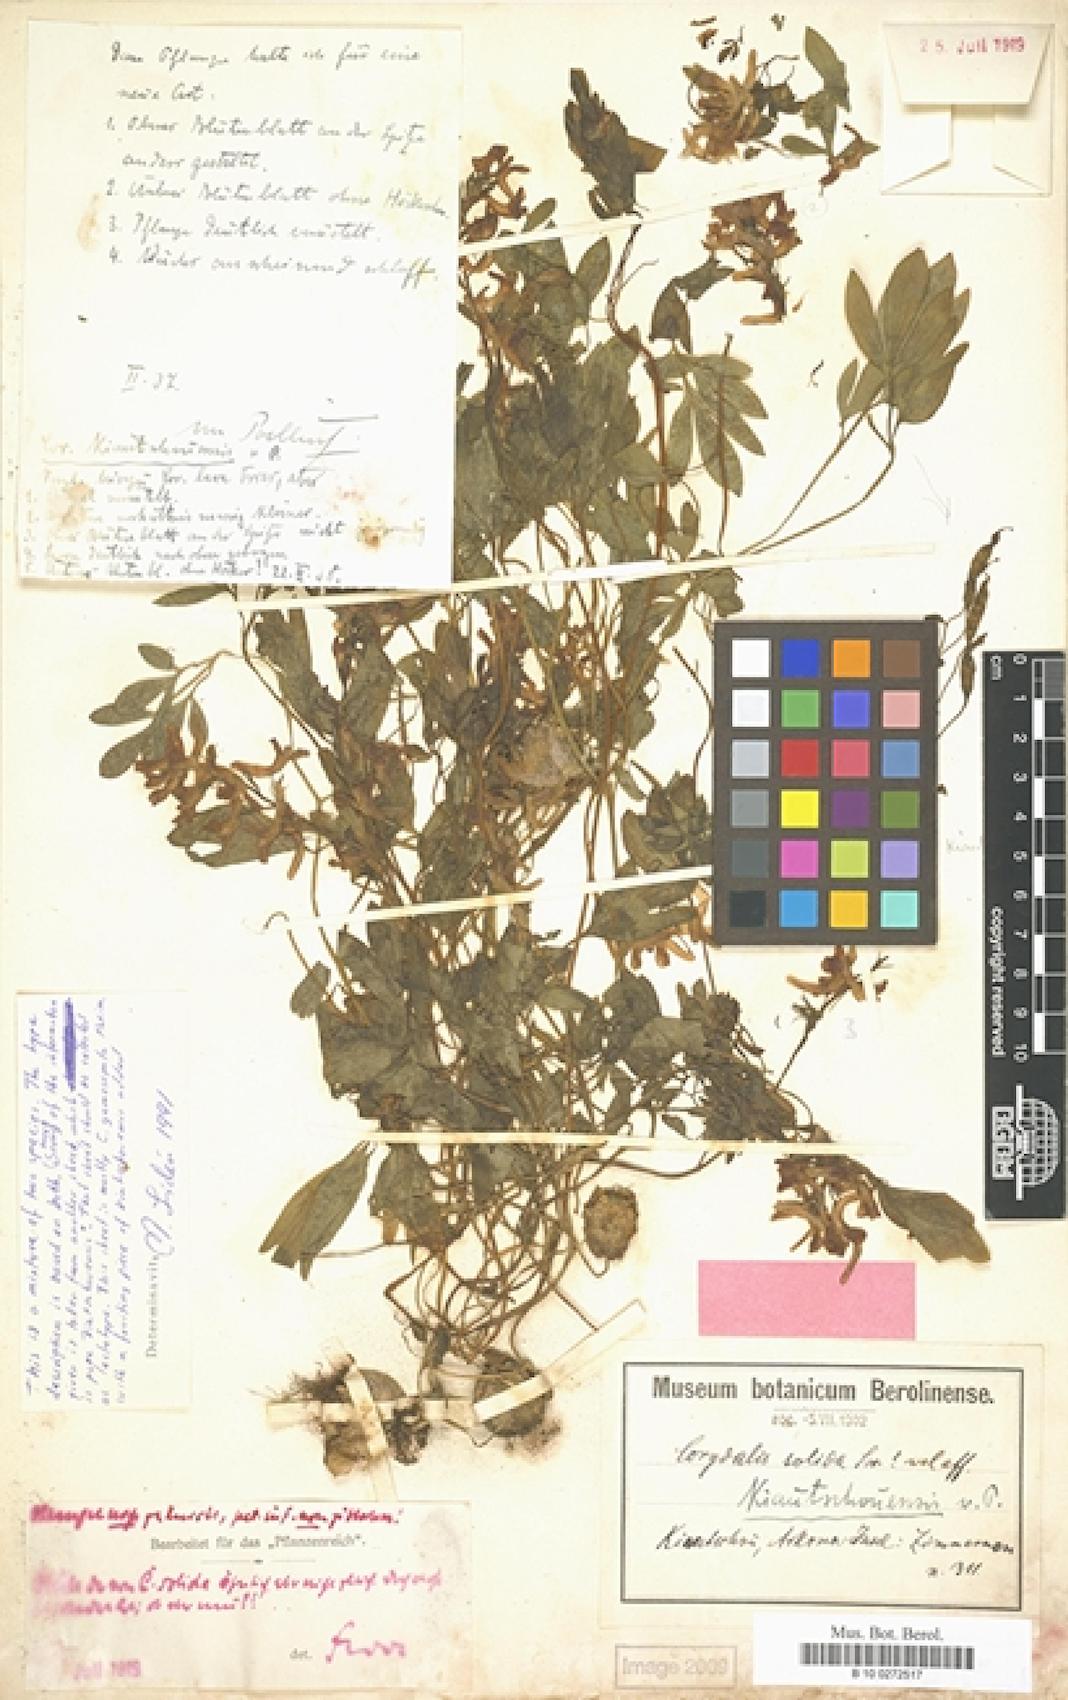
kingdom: Plantae
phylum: Tracheophyta
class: Magnoliopsida
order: Ranunculales
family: Papaveraceae
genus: Corydalis
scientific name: Corydalis kiautschouensis
